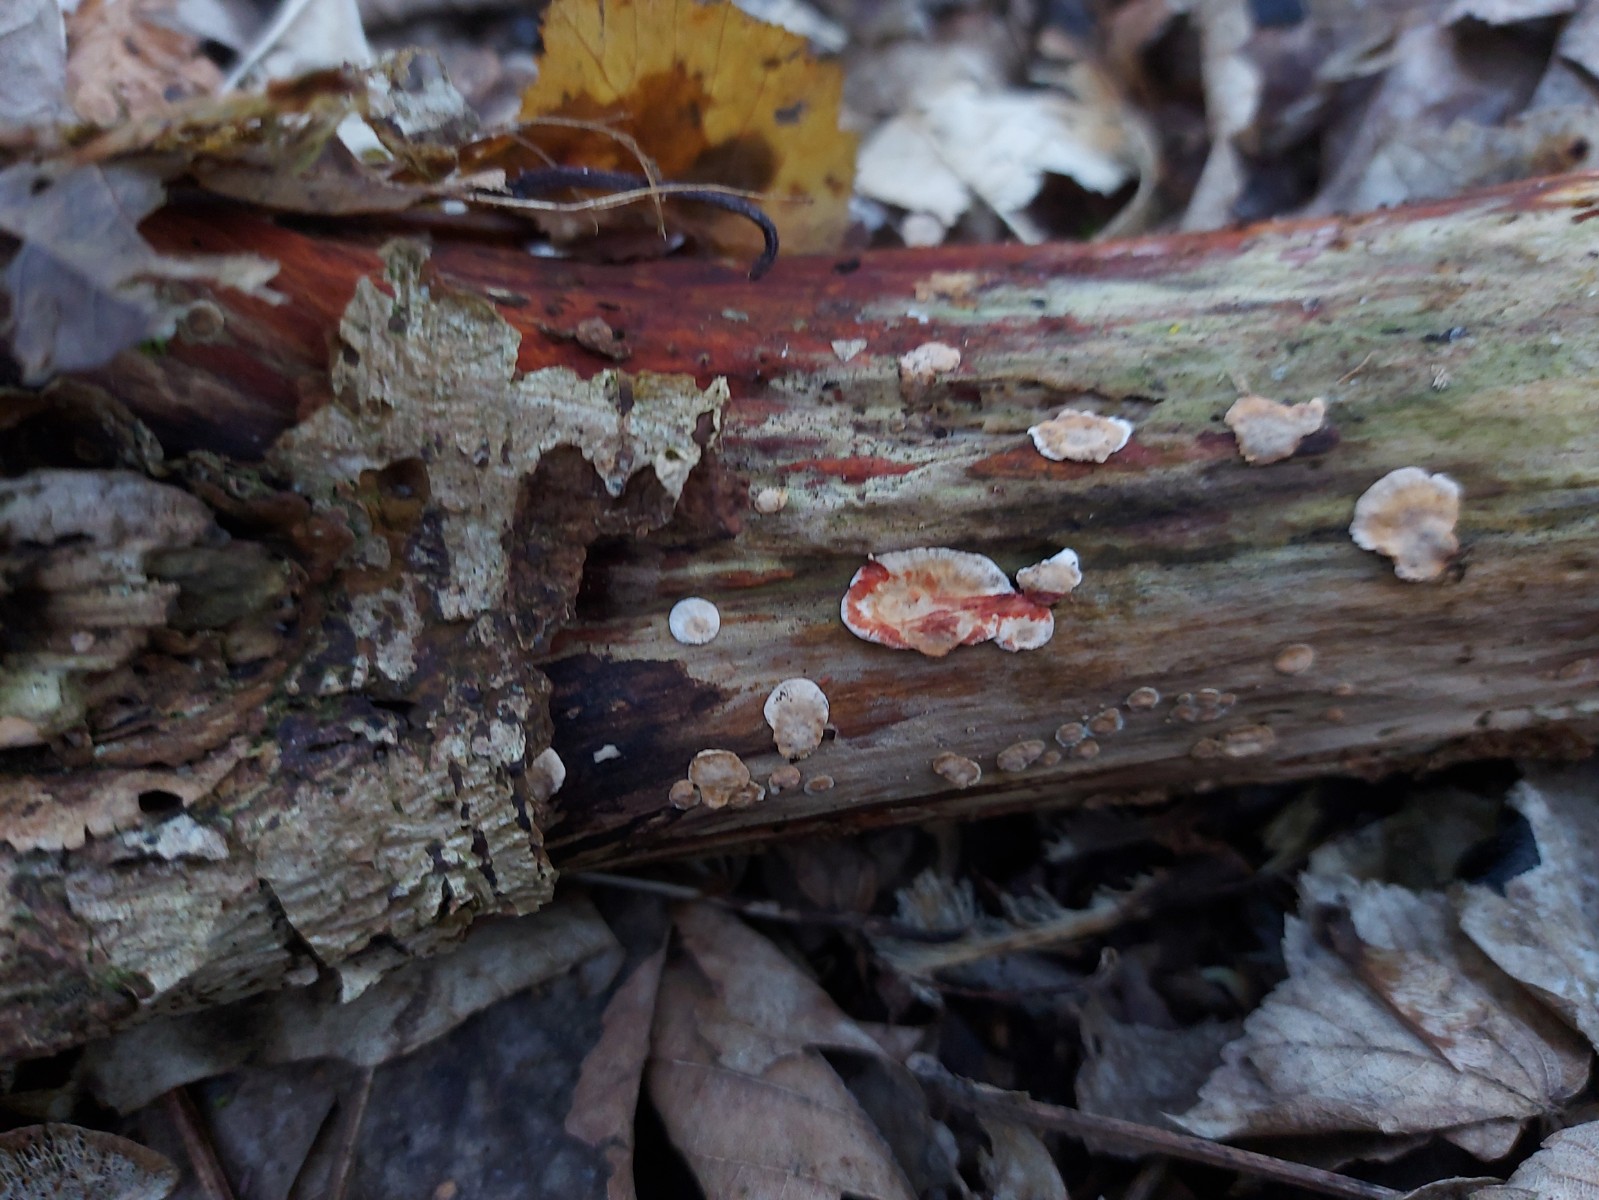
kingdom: Fungi
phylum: Basidiomycota
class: Agaricomycetes
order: Russulales
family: Stereaceae
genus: Stereum
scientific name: Stereum rugosum
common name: rynket lædersvamp
